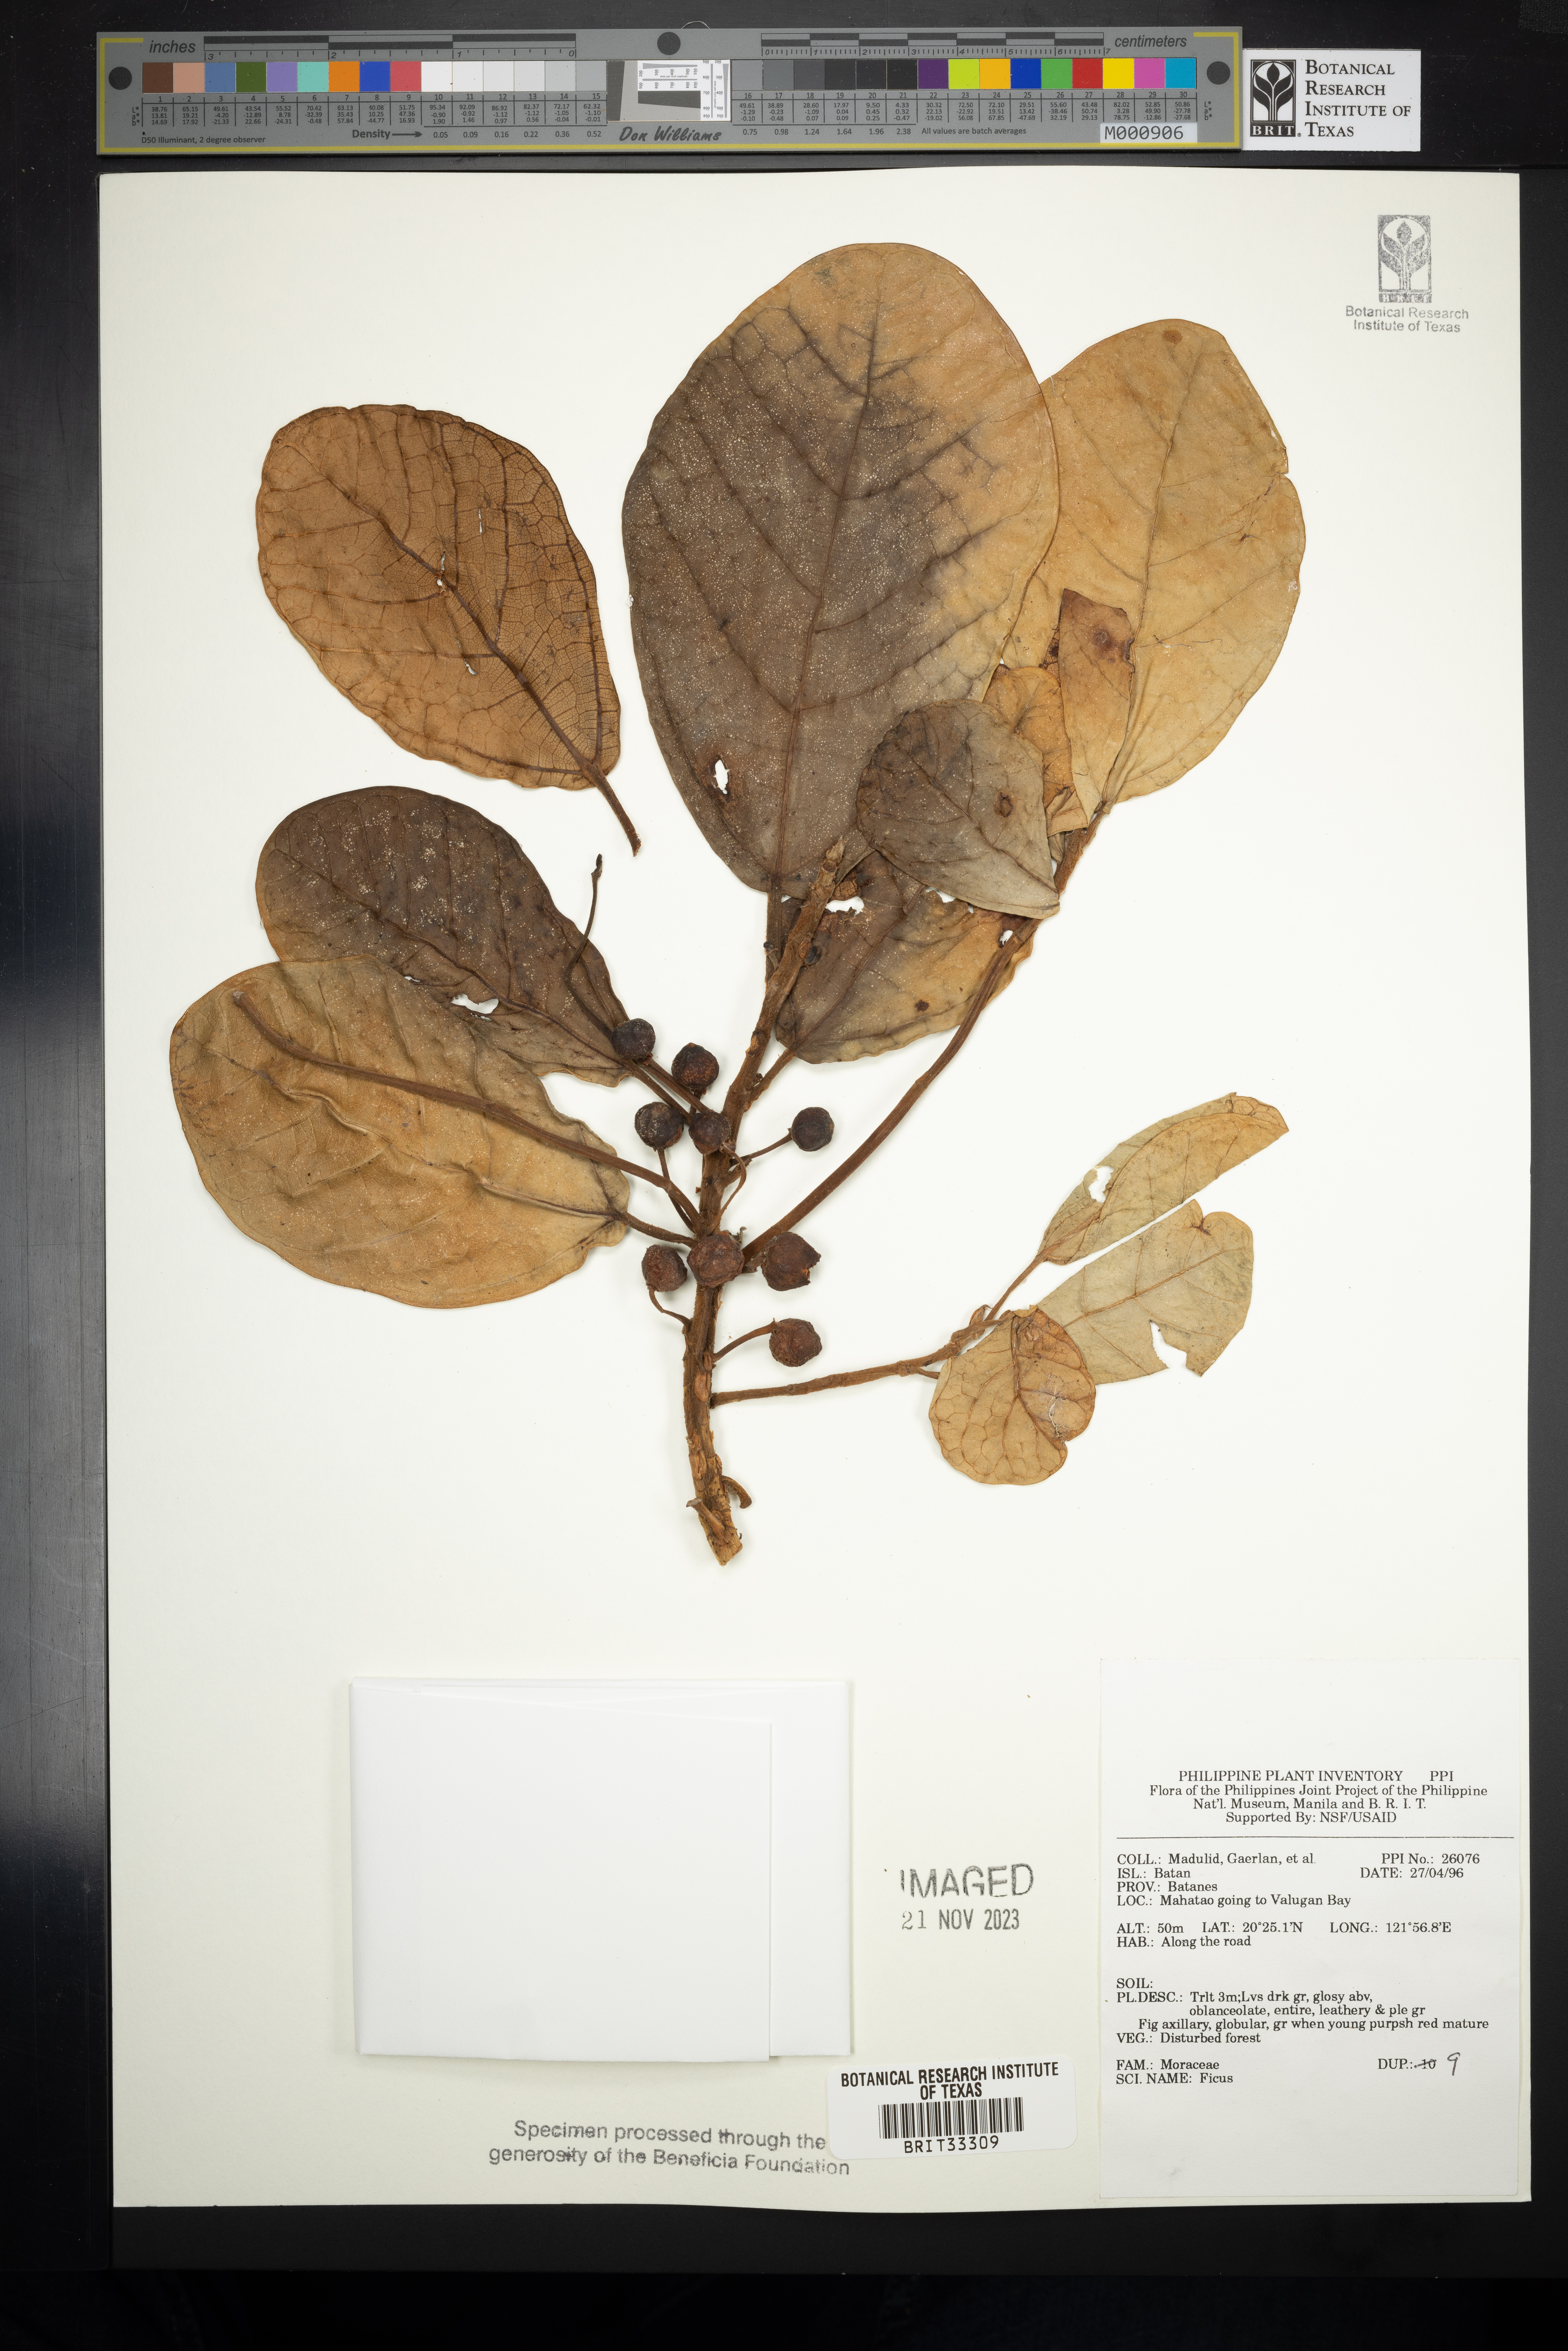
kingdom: Plantae
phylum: Tracheophyta
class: Magnoliopsida
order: Rosales
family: Moraceae
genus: Ficus
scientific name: Ficus
